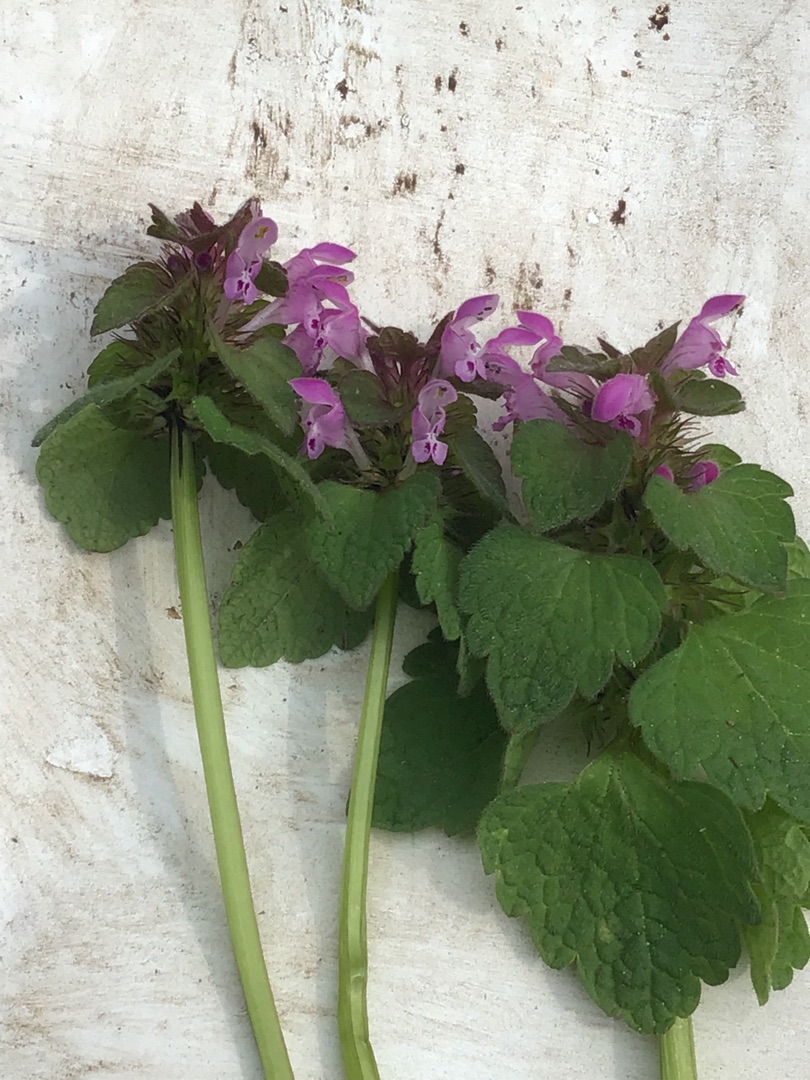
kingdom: Plantae
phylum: Tracheophyta
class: Magnoliopsida
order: Lamiales
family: Lamiaceae
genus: Lamium
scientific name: Lamium purpureum
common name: Rød tvetand
